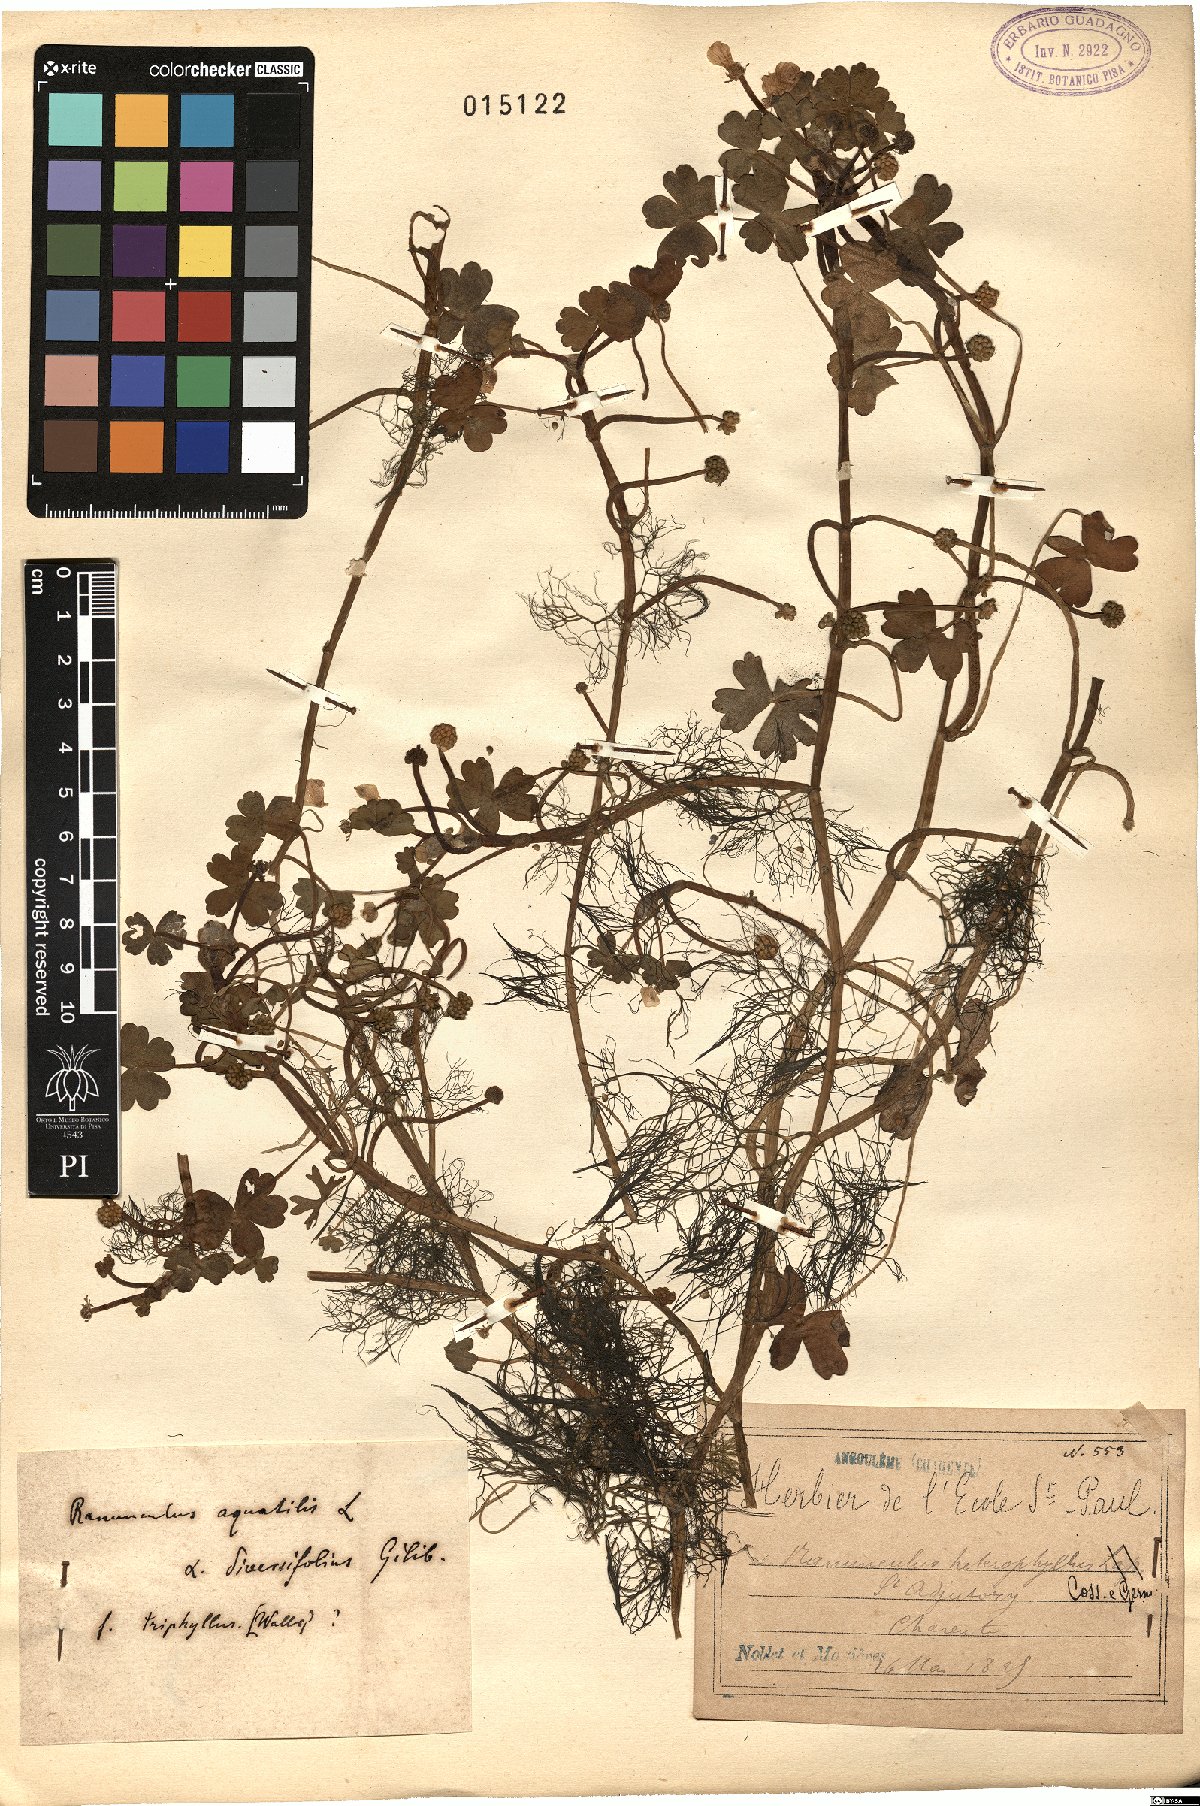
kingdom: Plantae
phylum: Tracheophyta
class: Magnoliopsida
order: Ranunculales
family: Ranunculaceae
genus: Ranunculus
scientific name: Ranunculus aquatilis
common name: Common water-crowfoot
